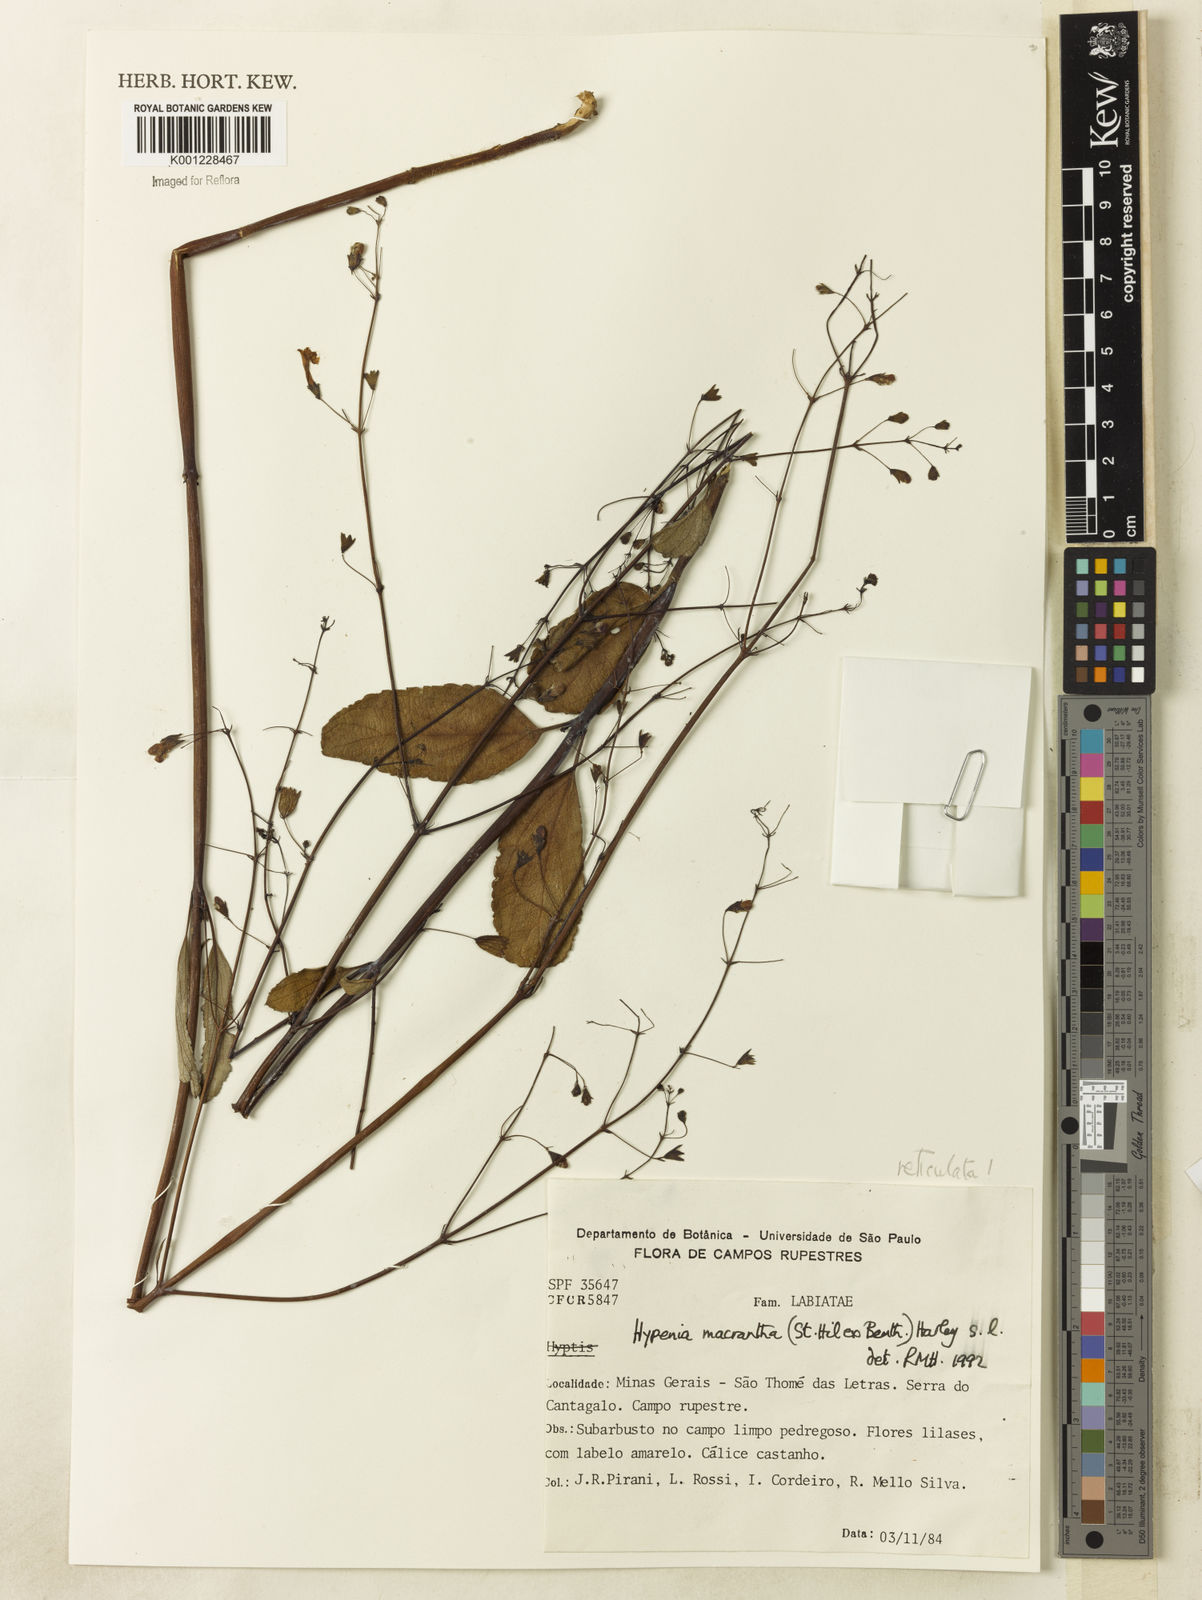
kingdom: Plantae
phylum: Tracheophyta
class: Magnoliopsida
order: Lamiales
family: Lamiaceae
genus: Hypenia
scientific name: Hypenia reticulata
